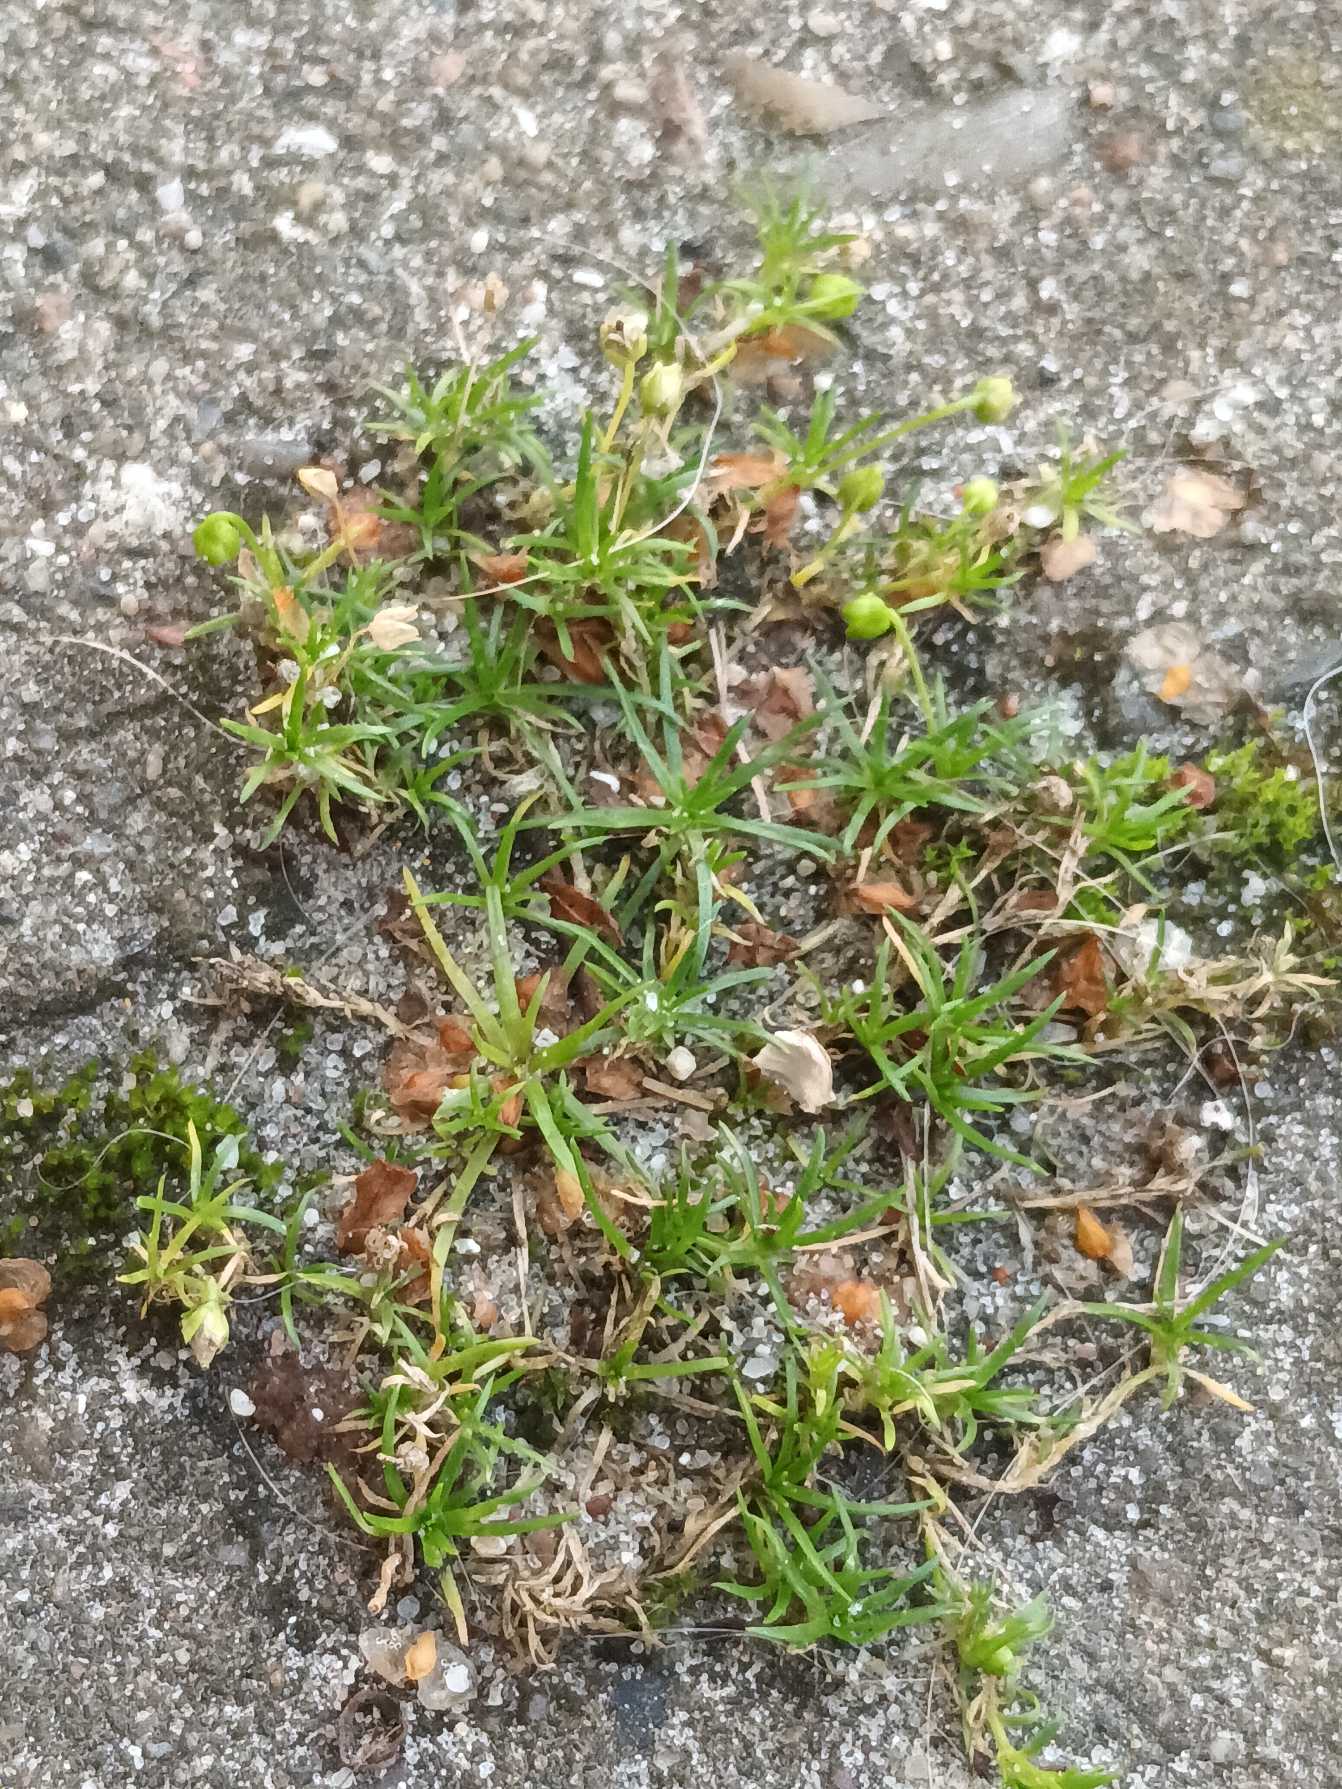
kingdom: Plantae
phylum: Tracheophyta
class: Magnoliopsida
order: Caryophyllales
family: Caryophyllaceae
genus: Sagina
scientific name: Sagina procumbens
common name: Almindelig firling
